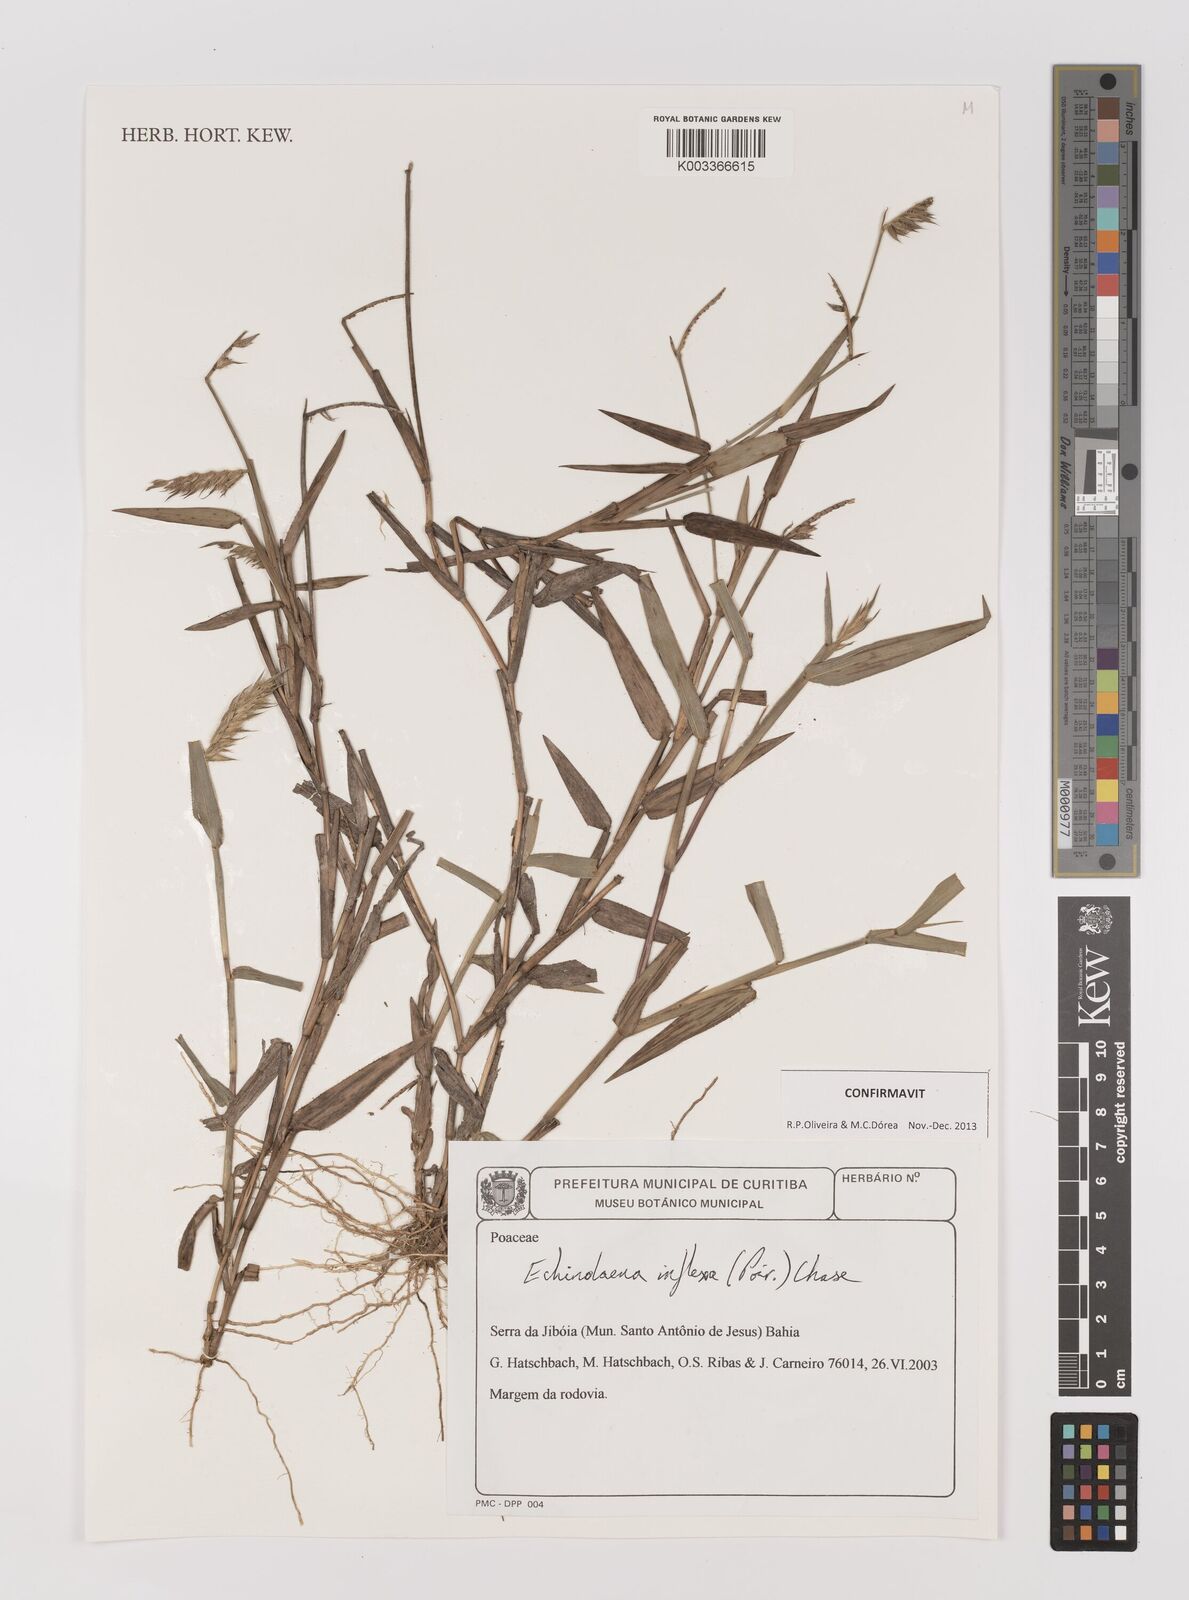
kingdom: Plantae
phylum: Tracheophyta
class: Liliopsida
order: Poales
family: Poaceae
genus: Echinolaena
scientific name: Echinolaena inflexa
